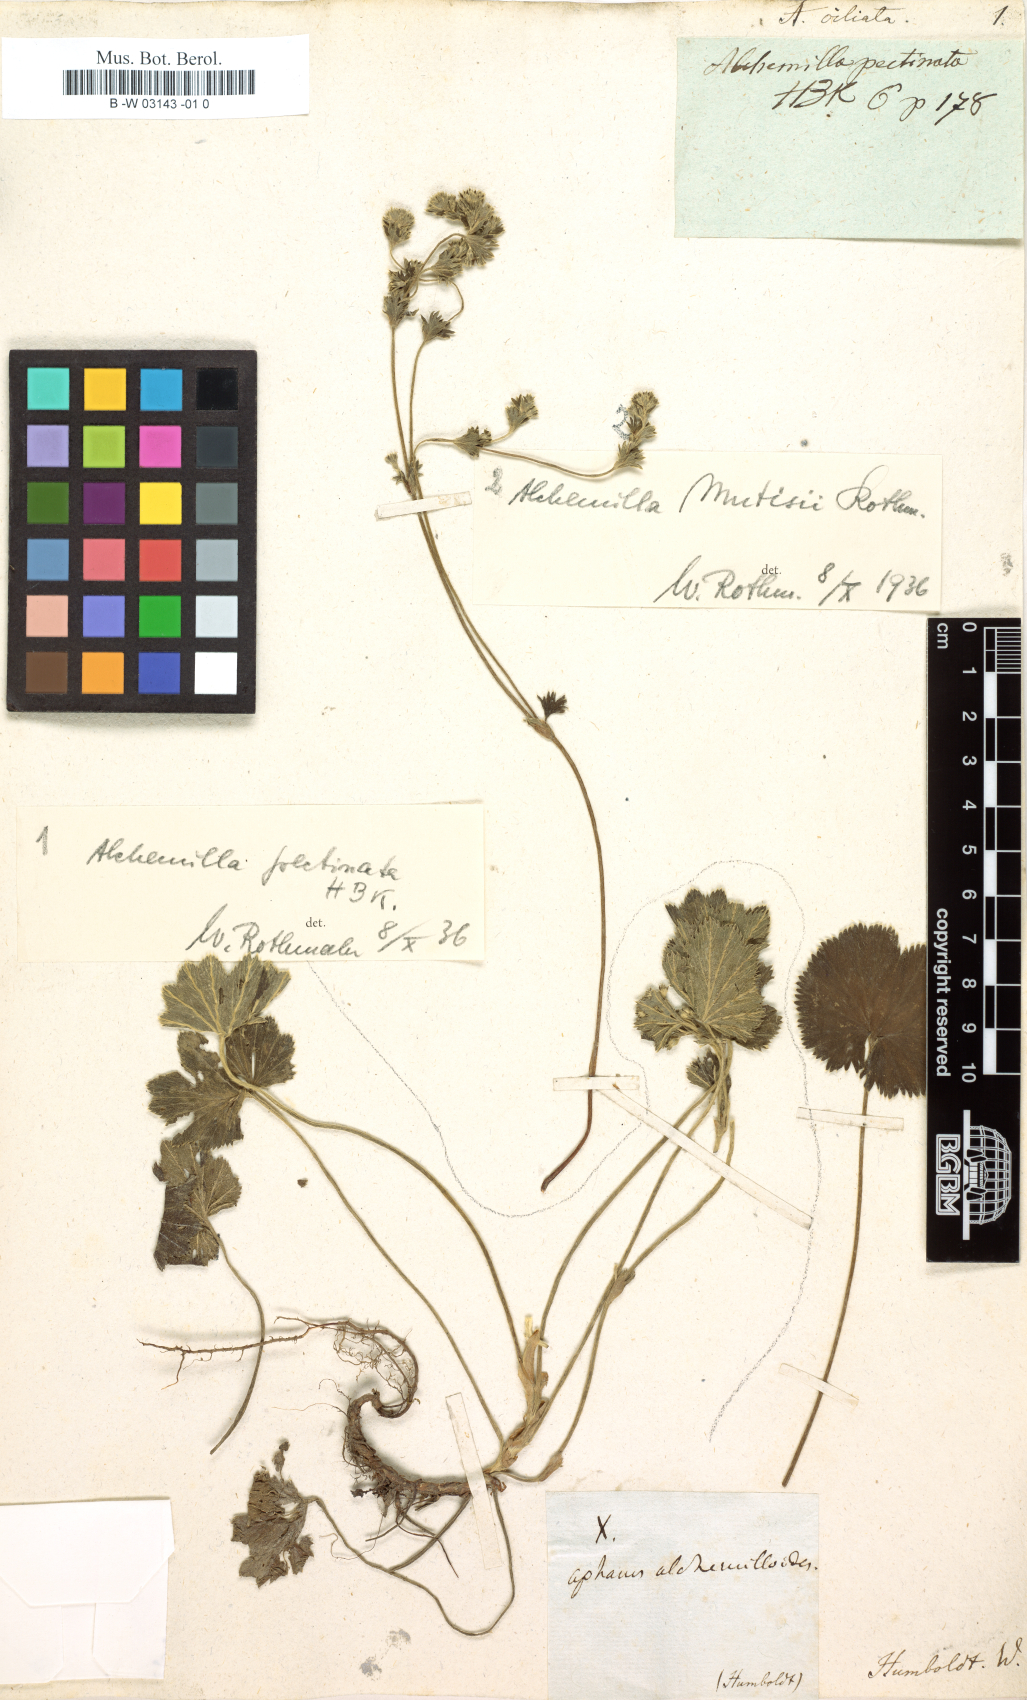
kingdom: Plantae
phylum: Tracheophyta
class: Magnoliopsida
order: Rosales
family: Rosaceae
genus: Lachemilla
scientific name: Lachemilla orbiculata
